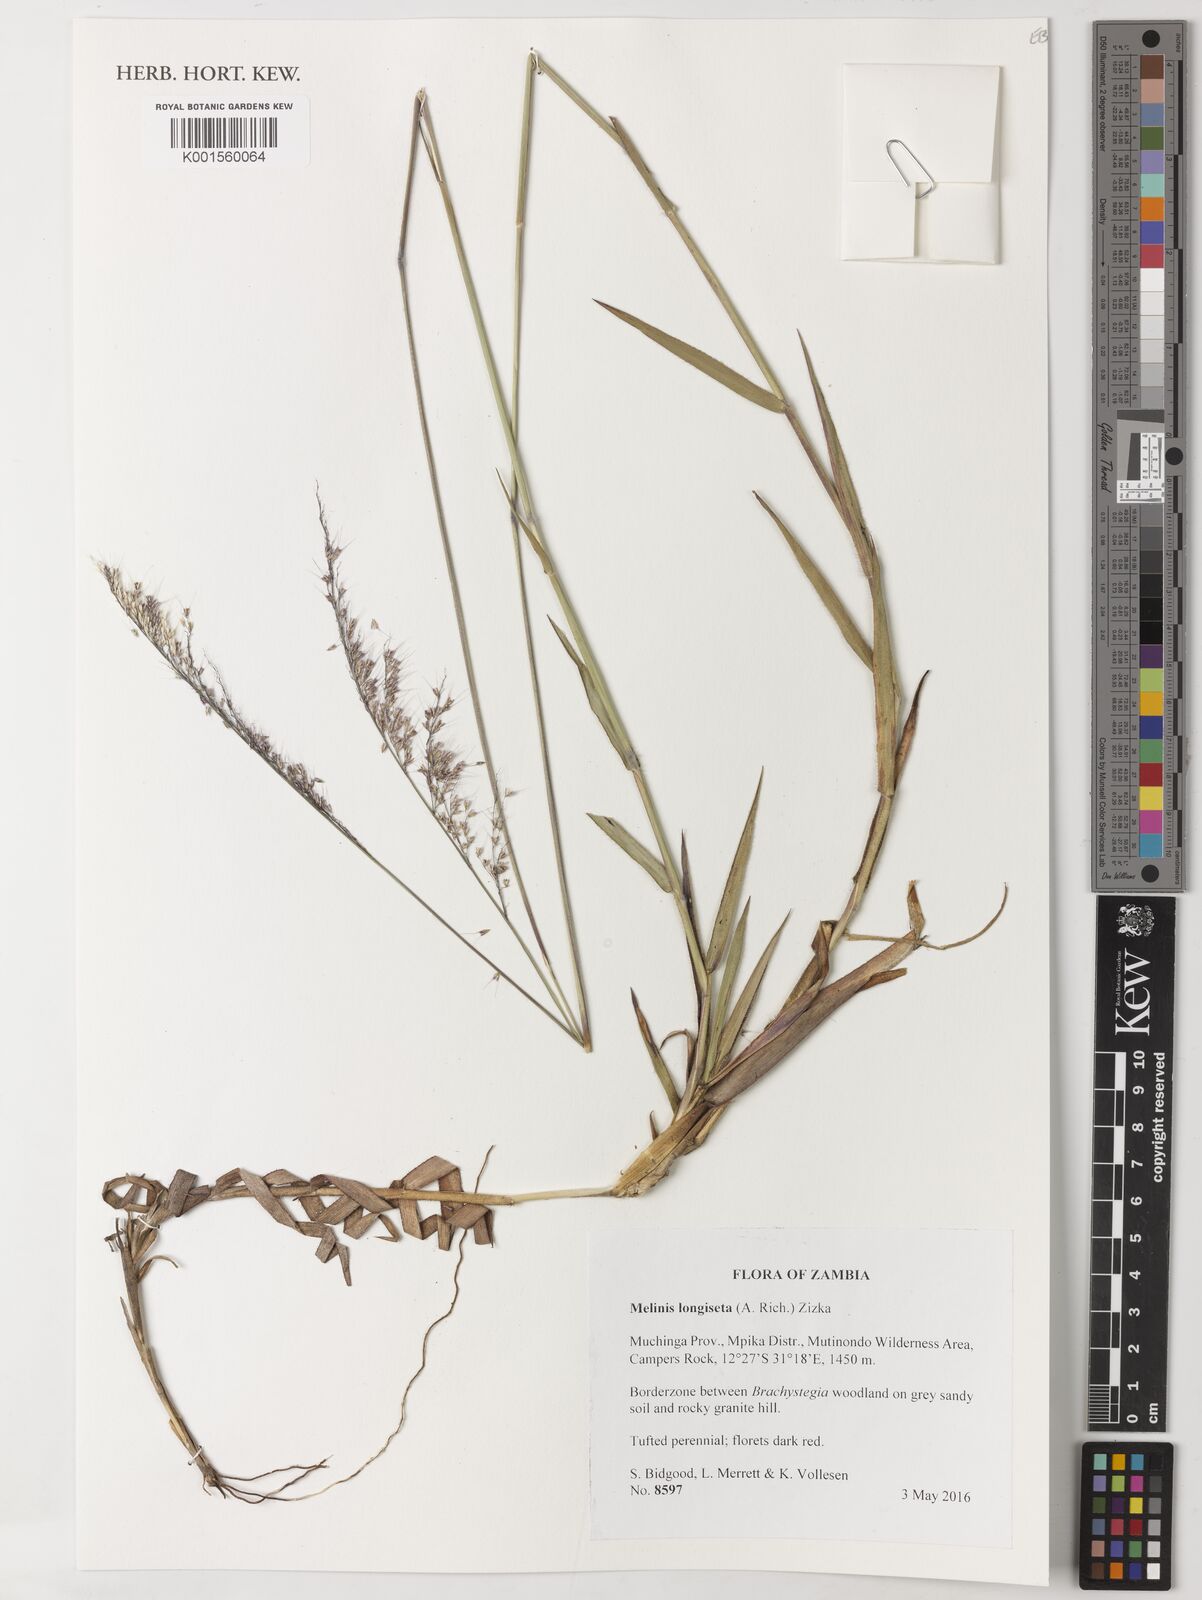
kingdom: Plantae
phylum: Tracheophyta
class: Liliopsida
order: Poales
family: Poaceae
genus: Melinis
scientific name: Melinis longiseta
